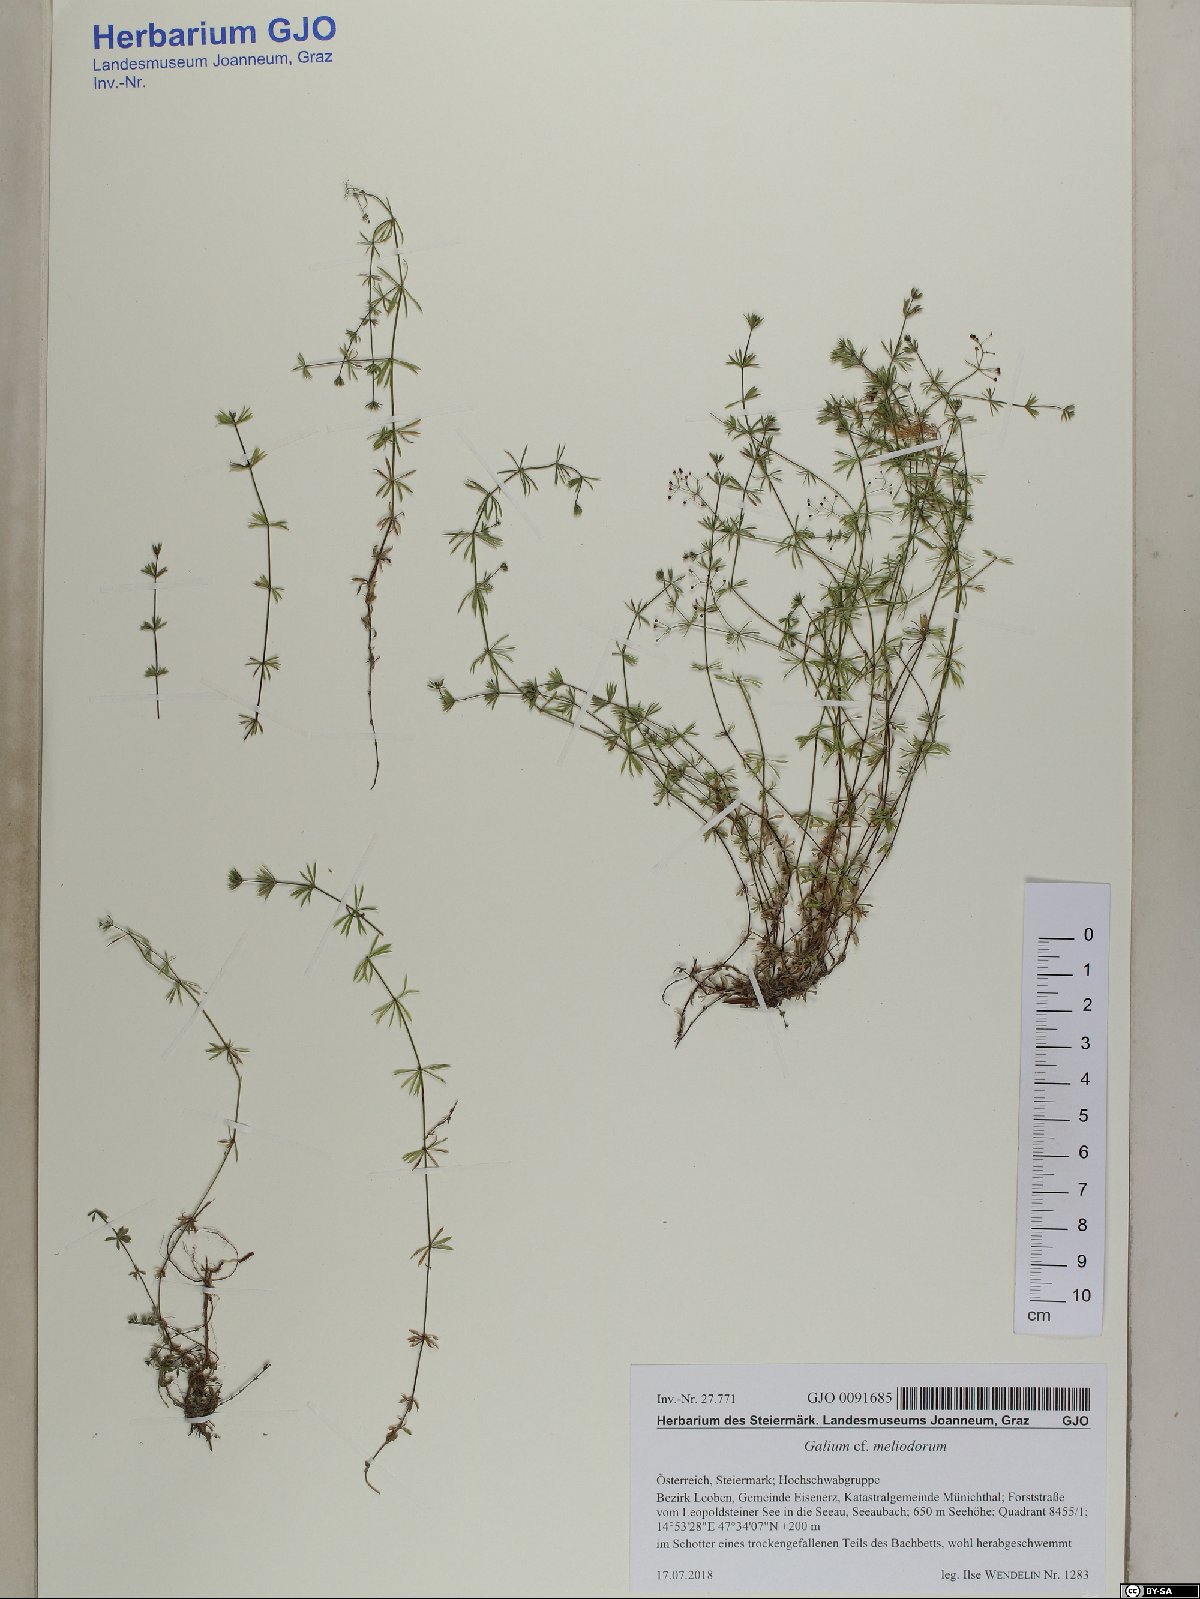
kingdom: Plantae
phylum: Tracheophyta
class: Magnoliopsida
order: Gentianales
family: Rubiaceae
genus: Galium
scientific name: Galium meliodorum
